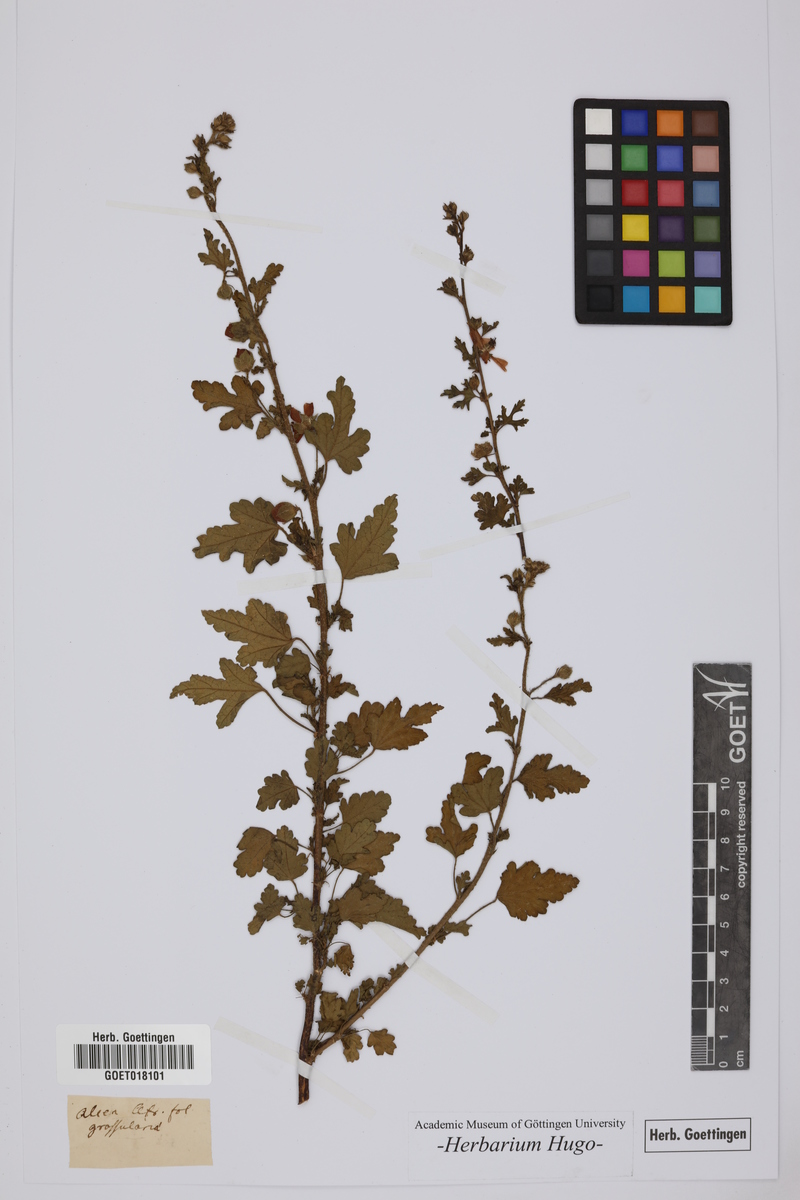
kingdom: Plantae
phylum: Tracheophyta
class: Magnoliopsida
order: Malvales
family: Malvaceae
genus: Alcea
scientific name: Alcea
